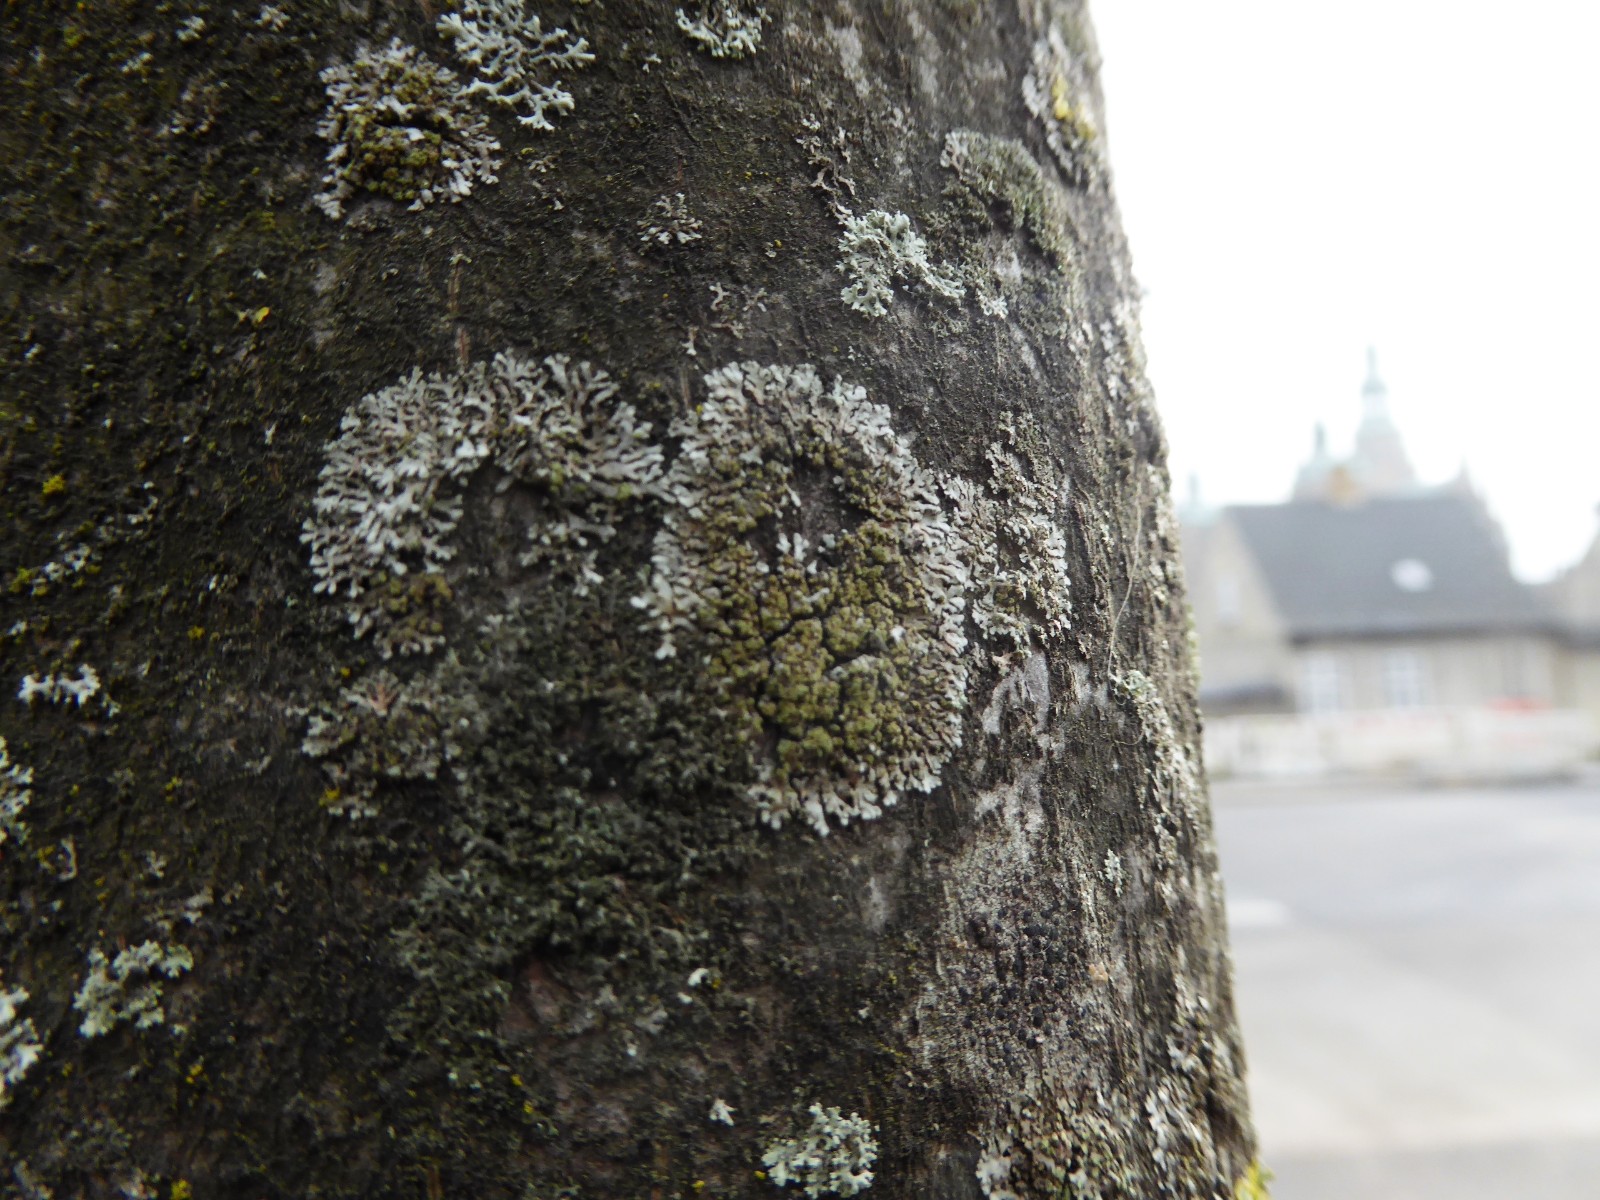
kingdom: Fungi
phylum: Ascomycota
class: Lecanoromycetes
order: Caliciales
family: Physciaceae
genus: Phaeophyscia
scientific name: Phaeophyscia orbicularis
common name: grågrøn rosetlav
